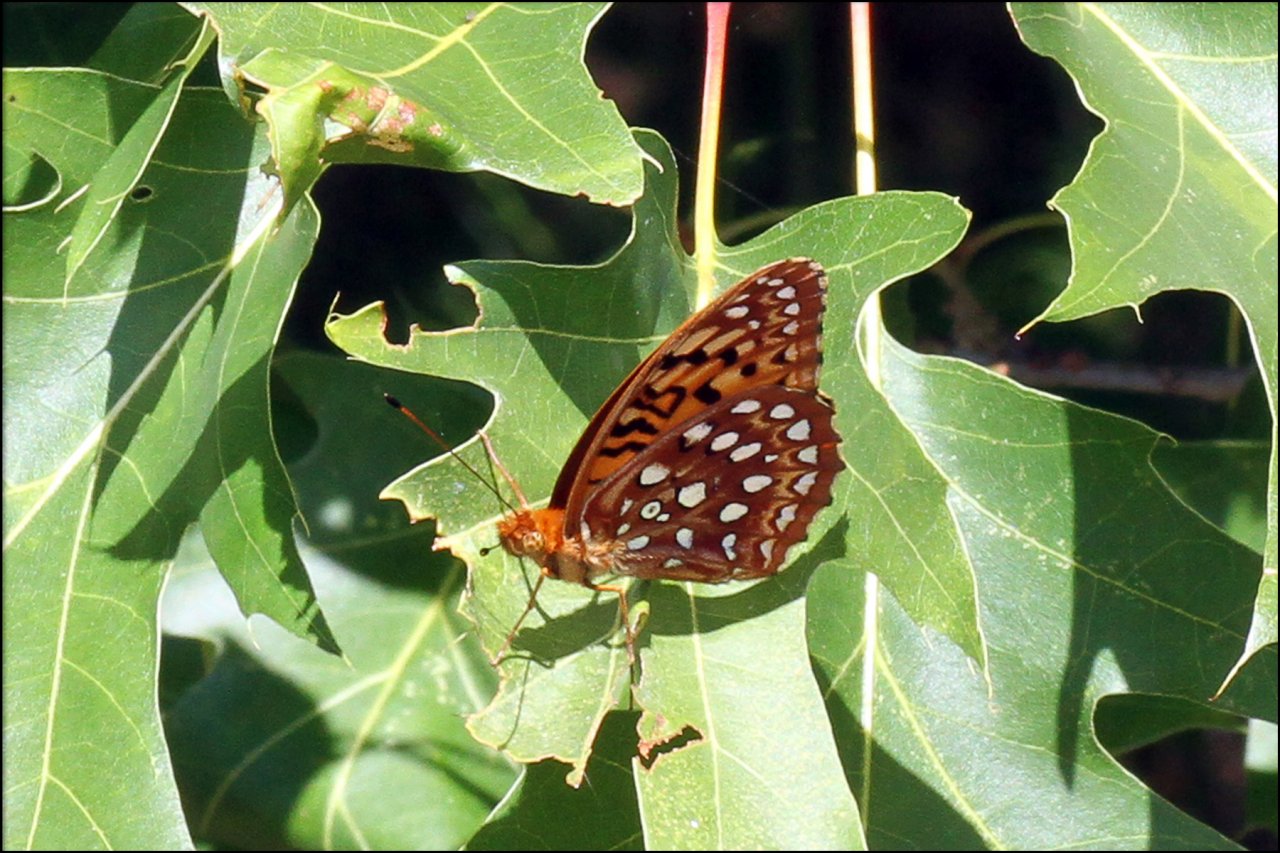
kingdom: Animalia
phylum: Arthropoda
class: Insecta
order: Lepidoptera
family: Nymphalidae
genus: Speyeria
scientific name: Speyeria aphrodite
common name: Aphrodite Fritillary
